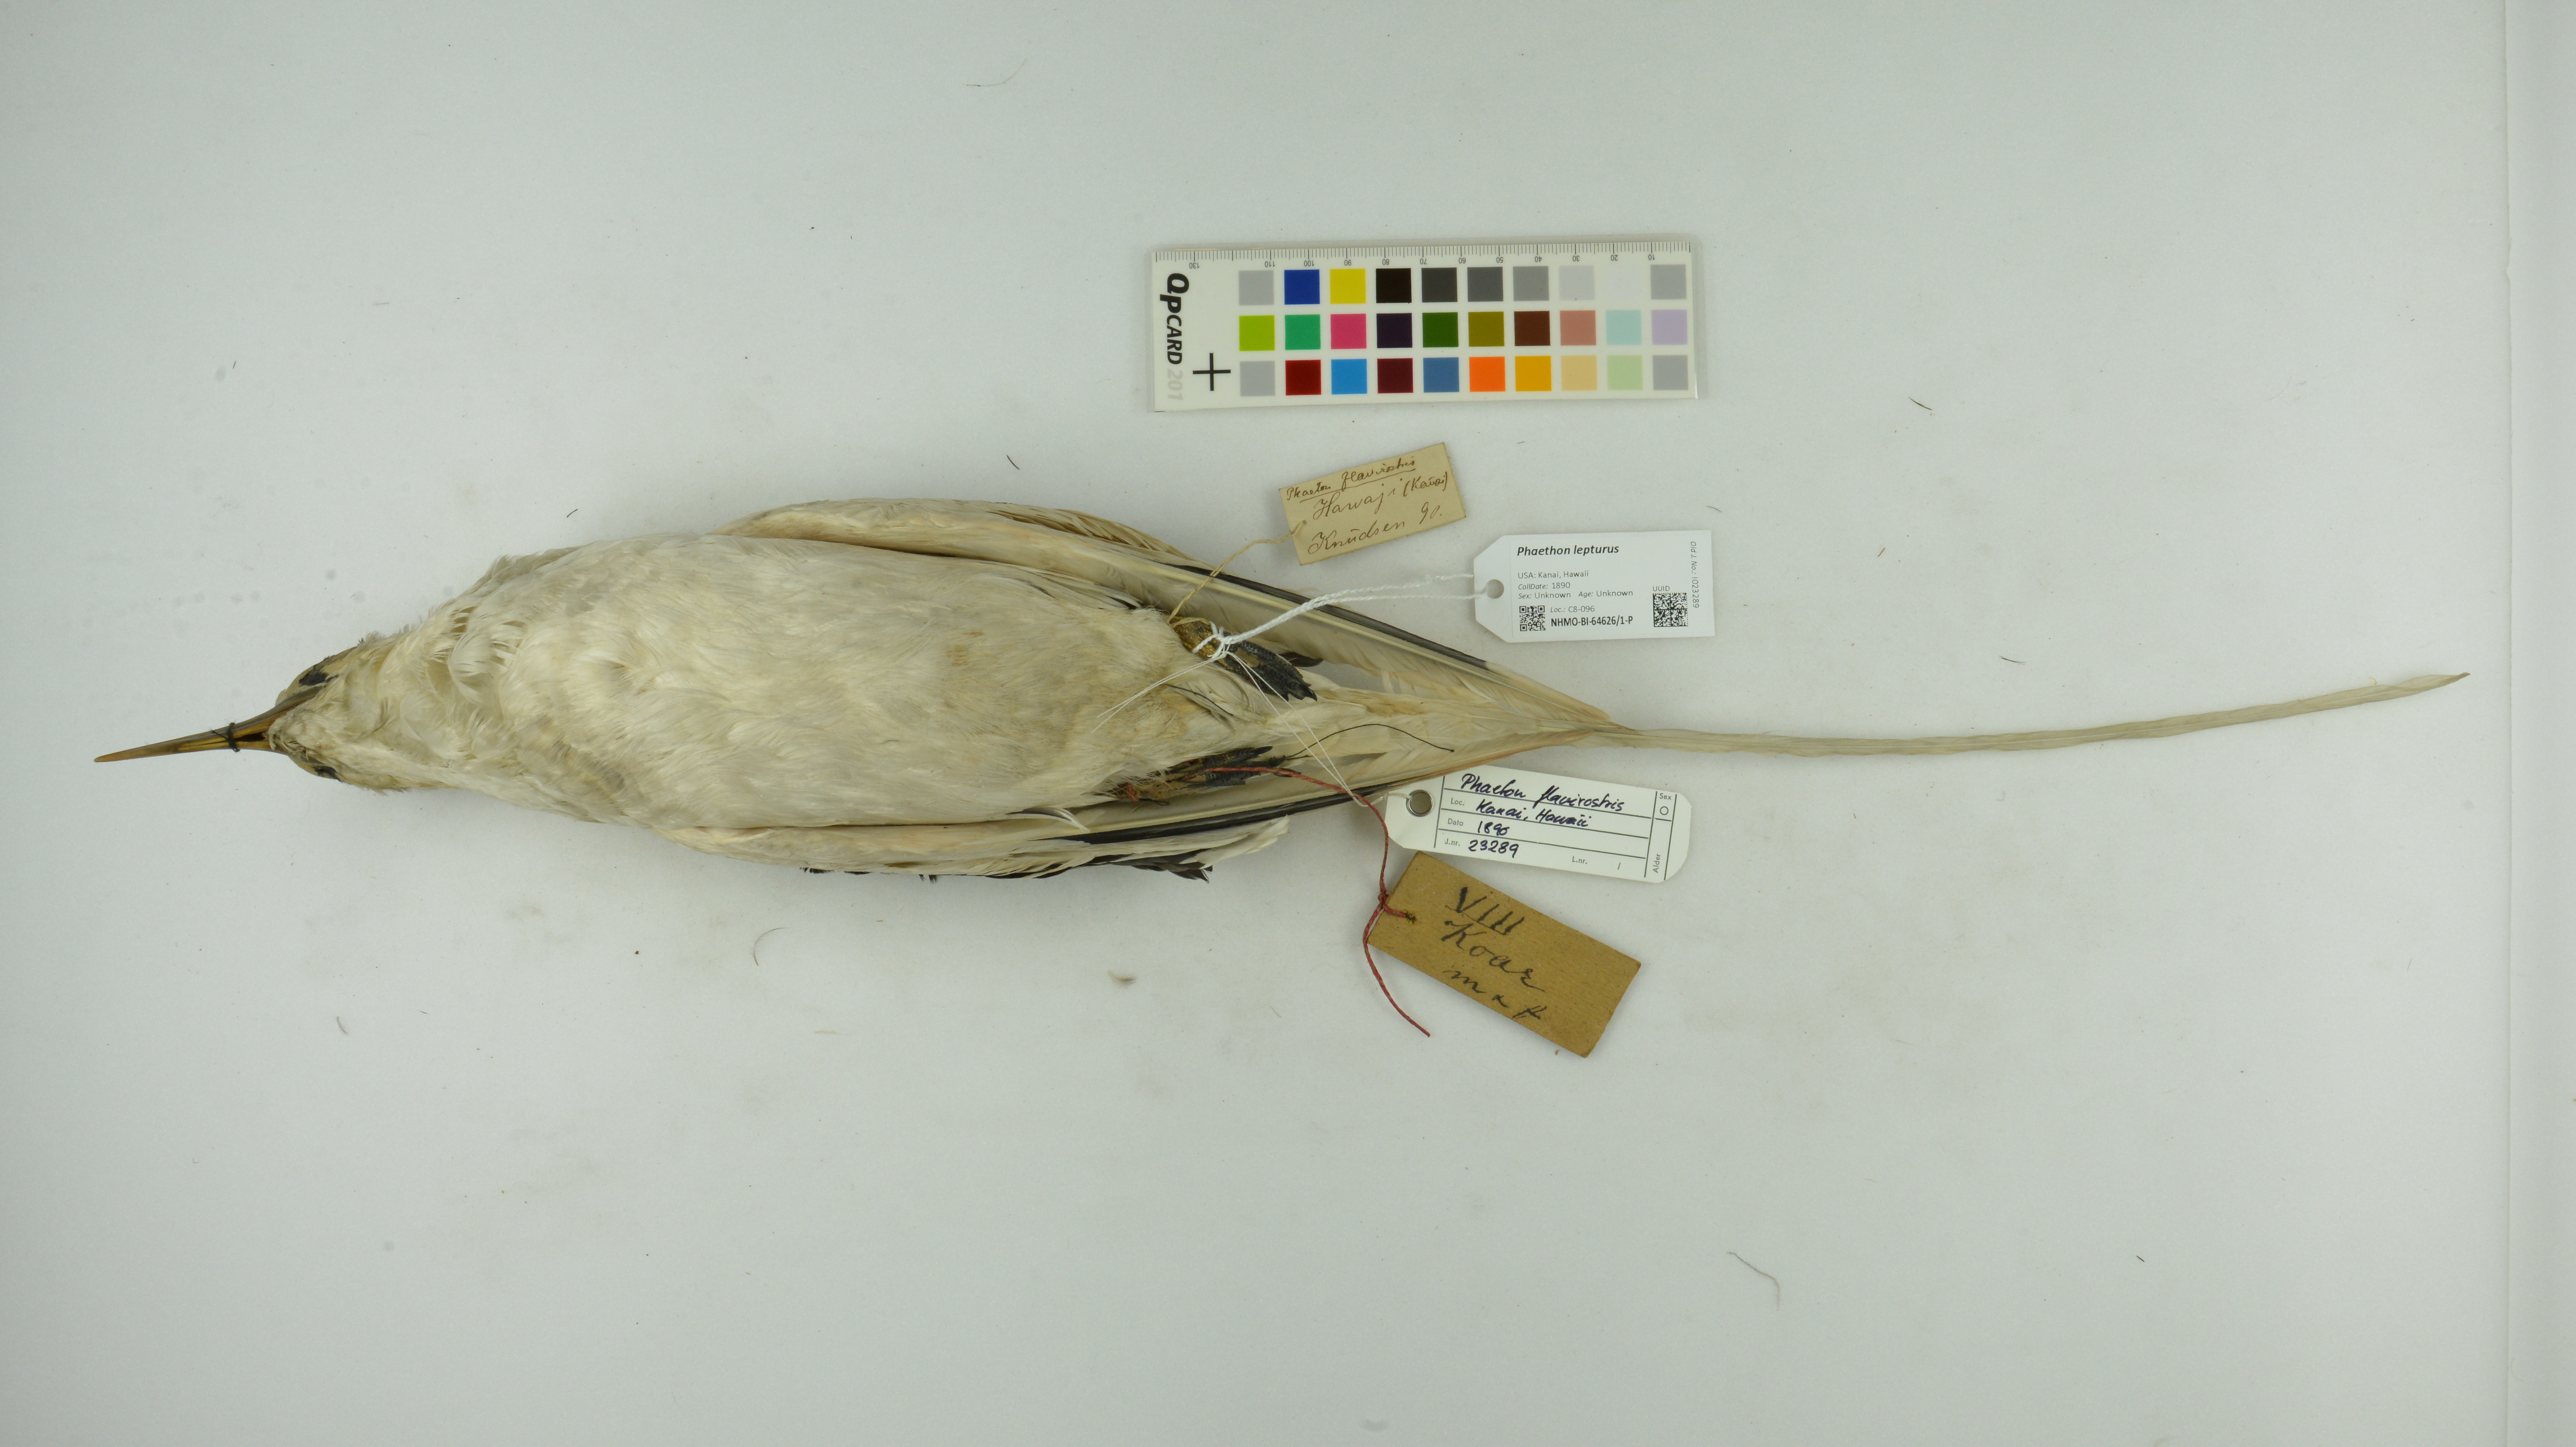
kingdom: Animalia
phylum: Chordata
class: Aves
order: Phaethontiformes
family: Phaethontidae
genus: Phaethon
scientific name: Phaethon lepturus
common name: White-tailed tropicbird
